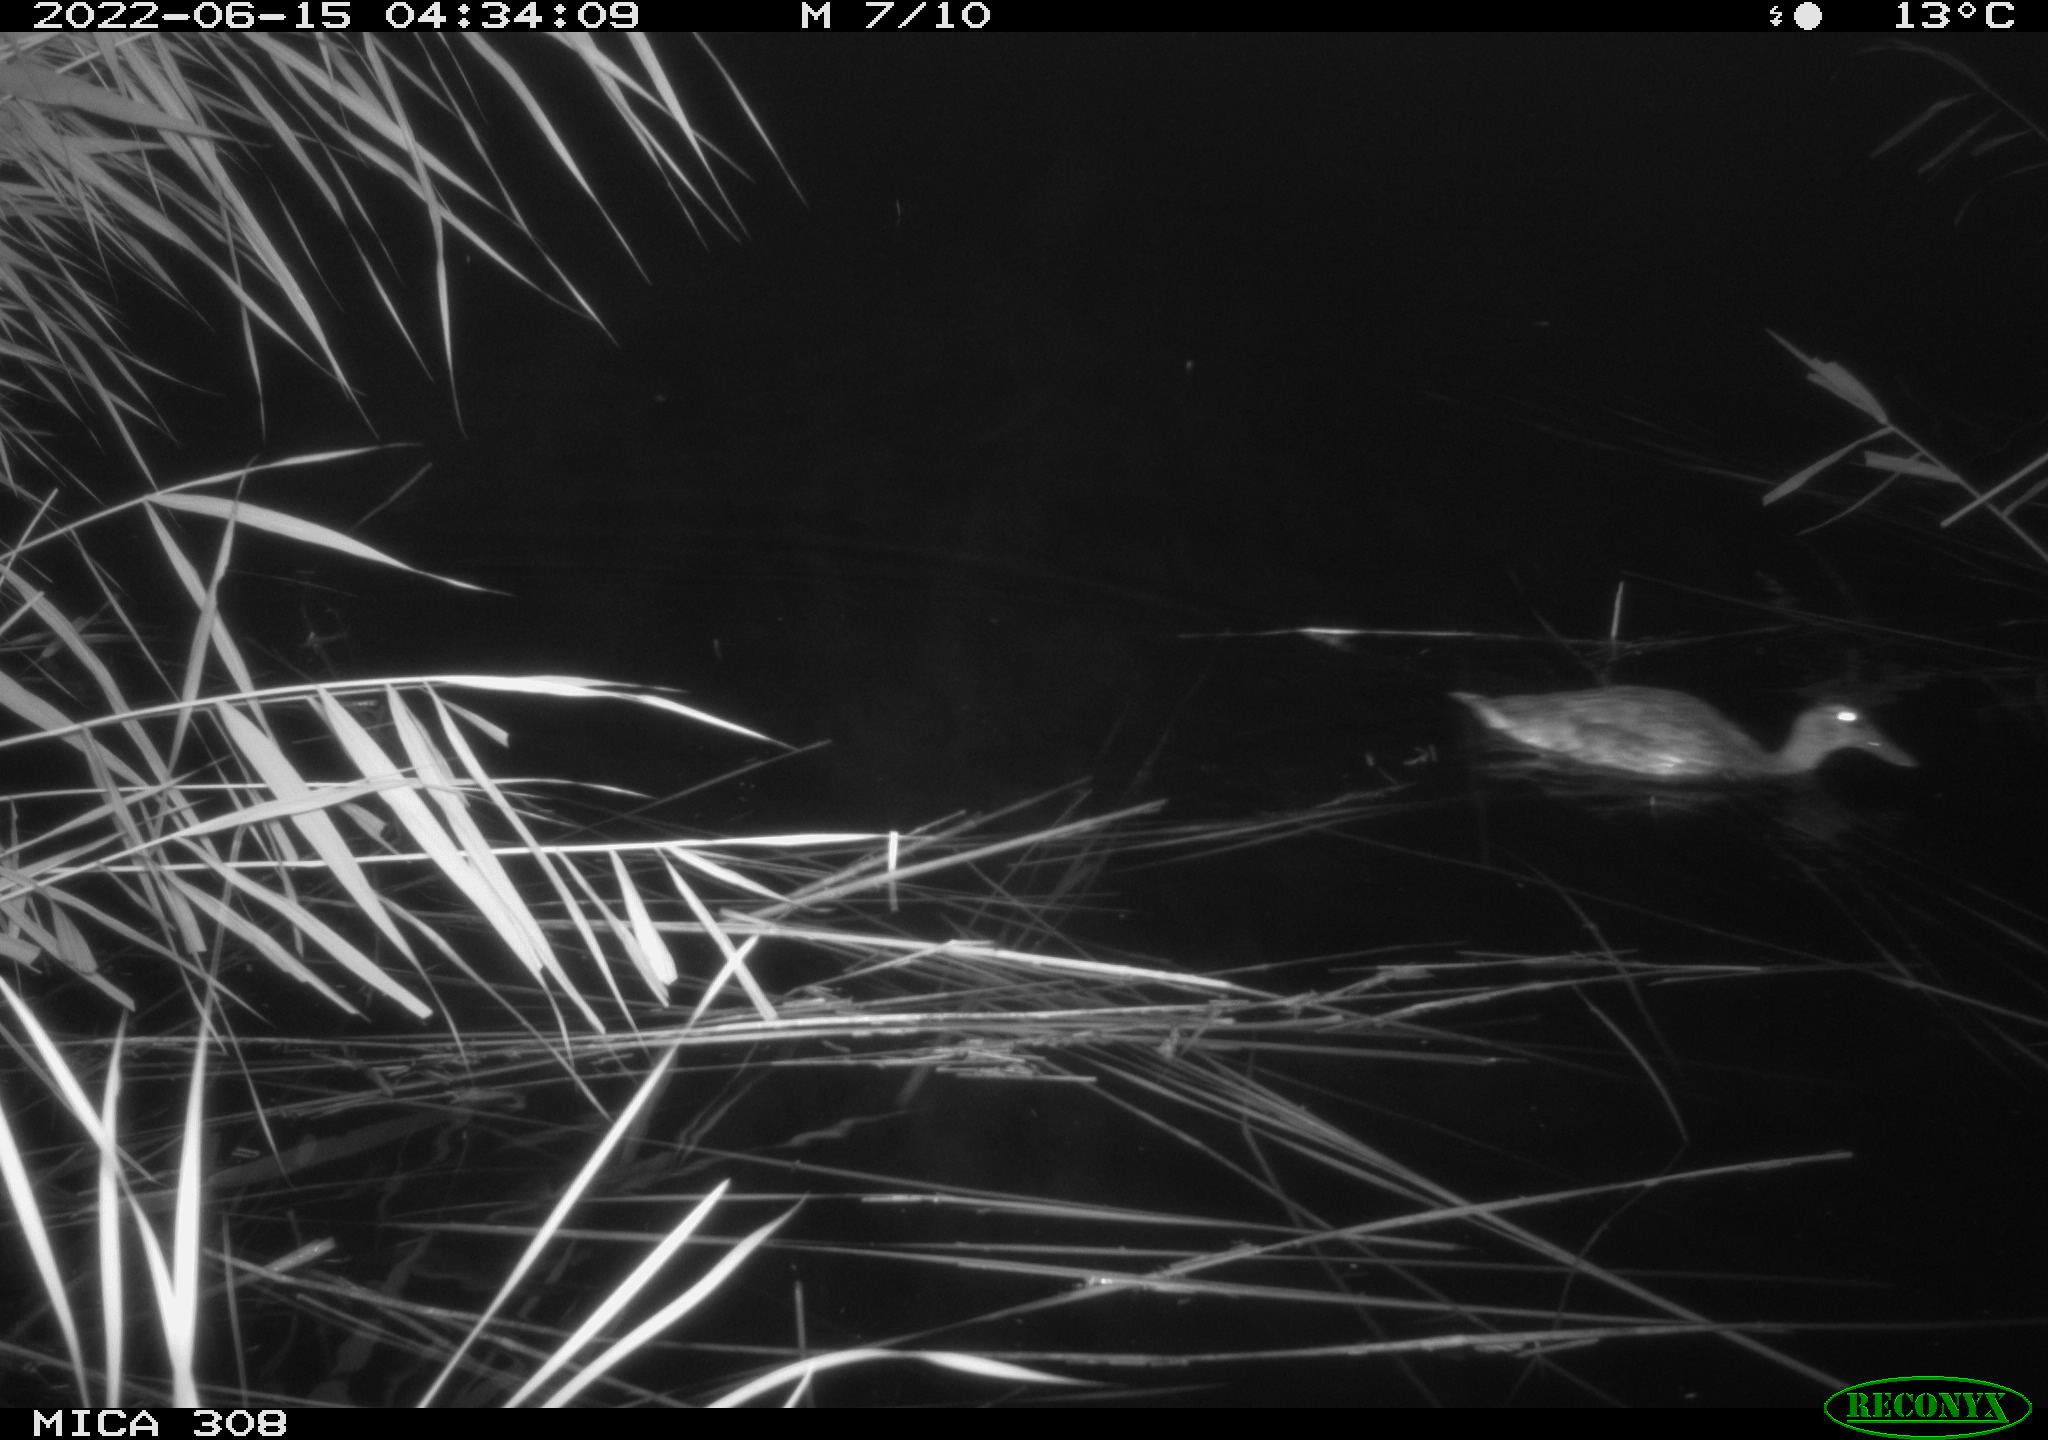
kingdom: Animalia
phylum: Chordata
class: Aves
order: Anseriformes
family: Anatidae
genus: Anas
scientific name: Anas platyrhynchos
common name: Mallard
